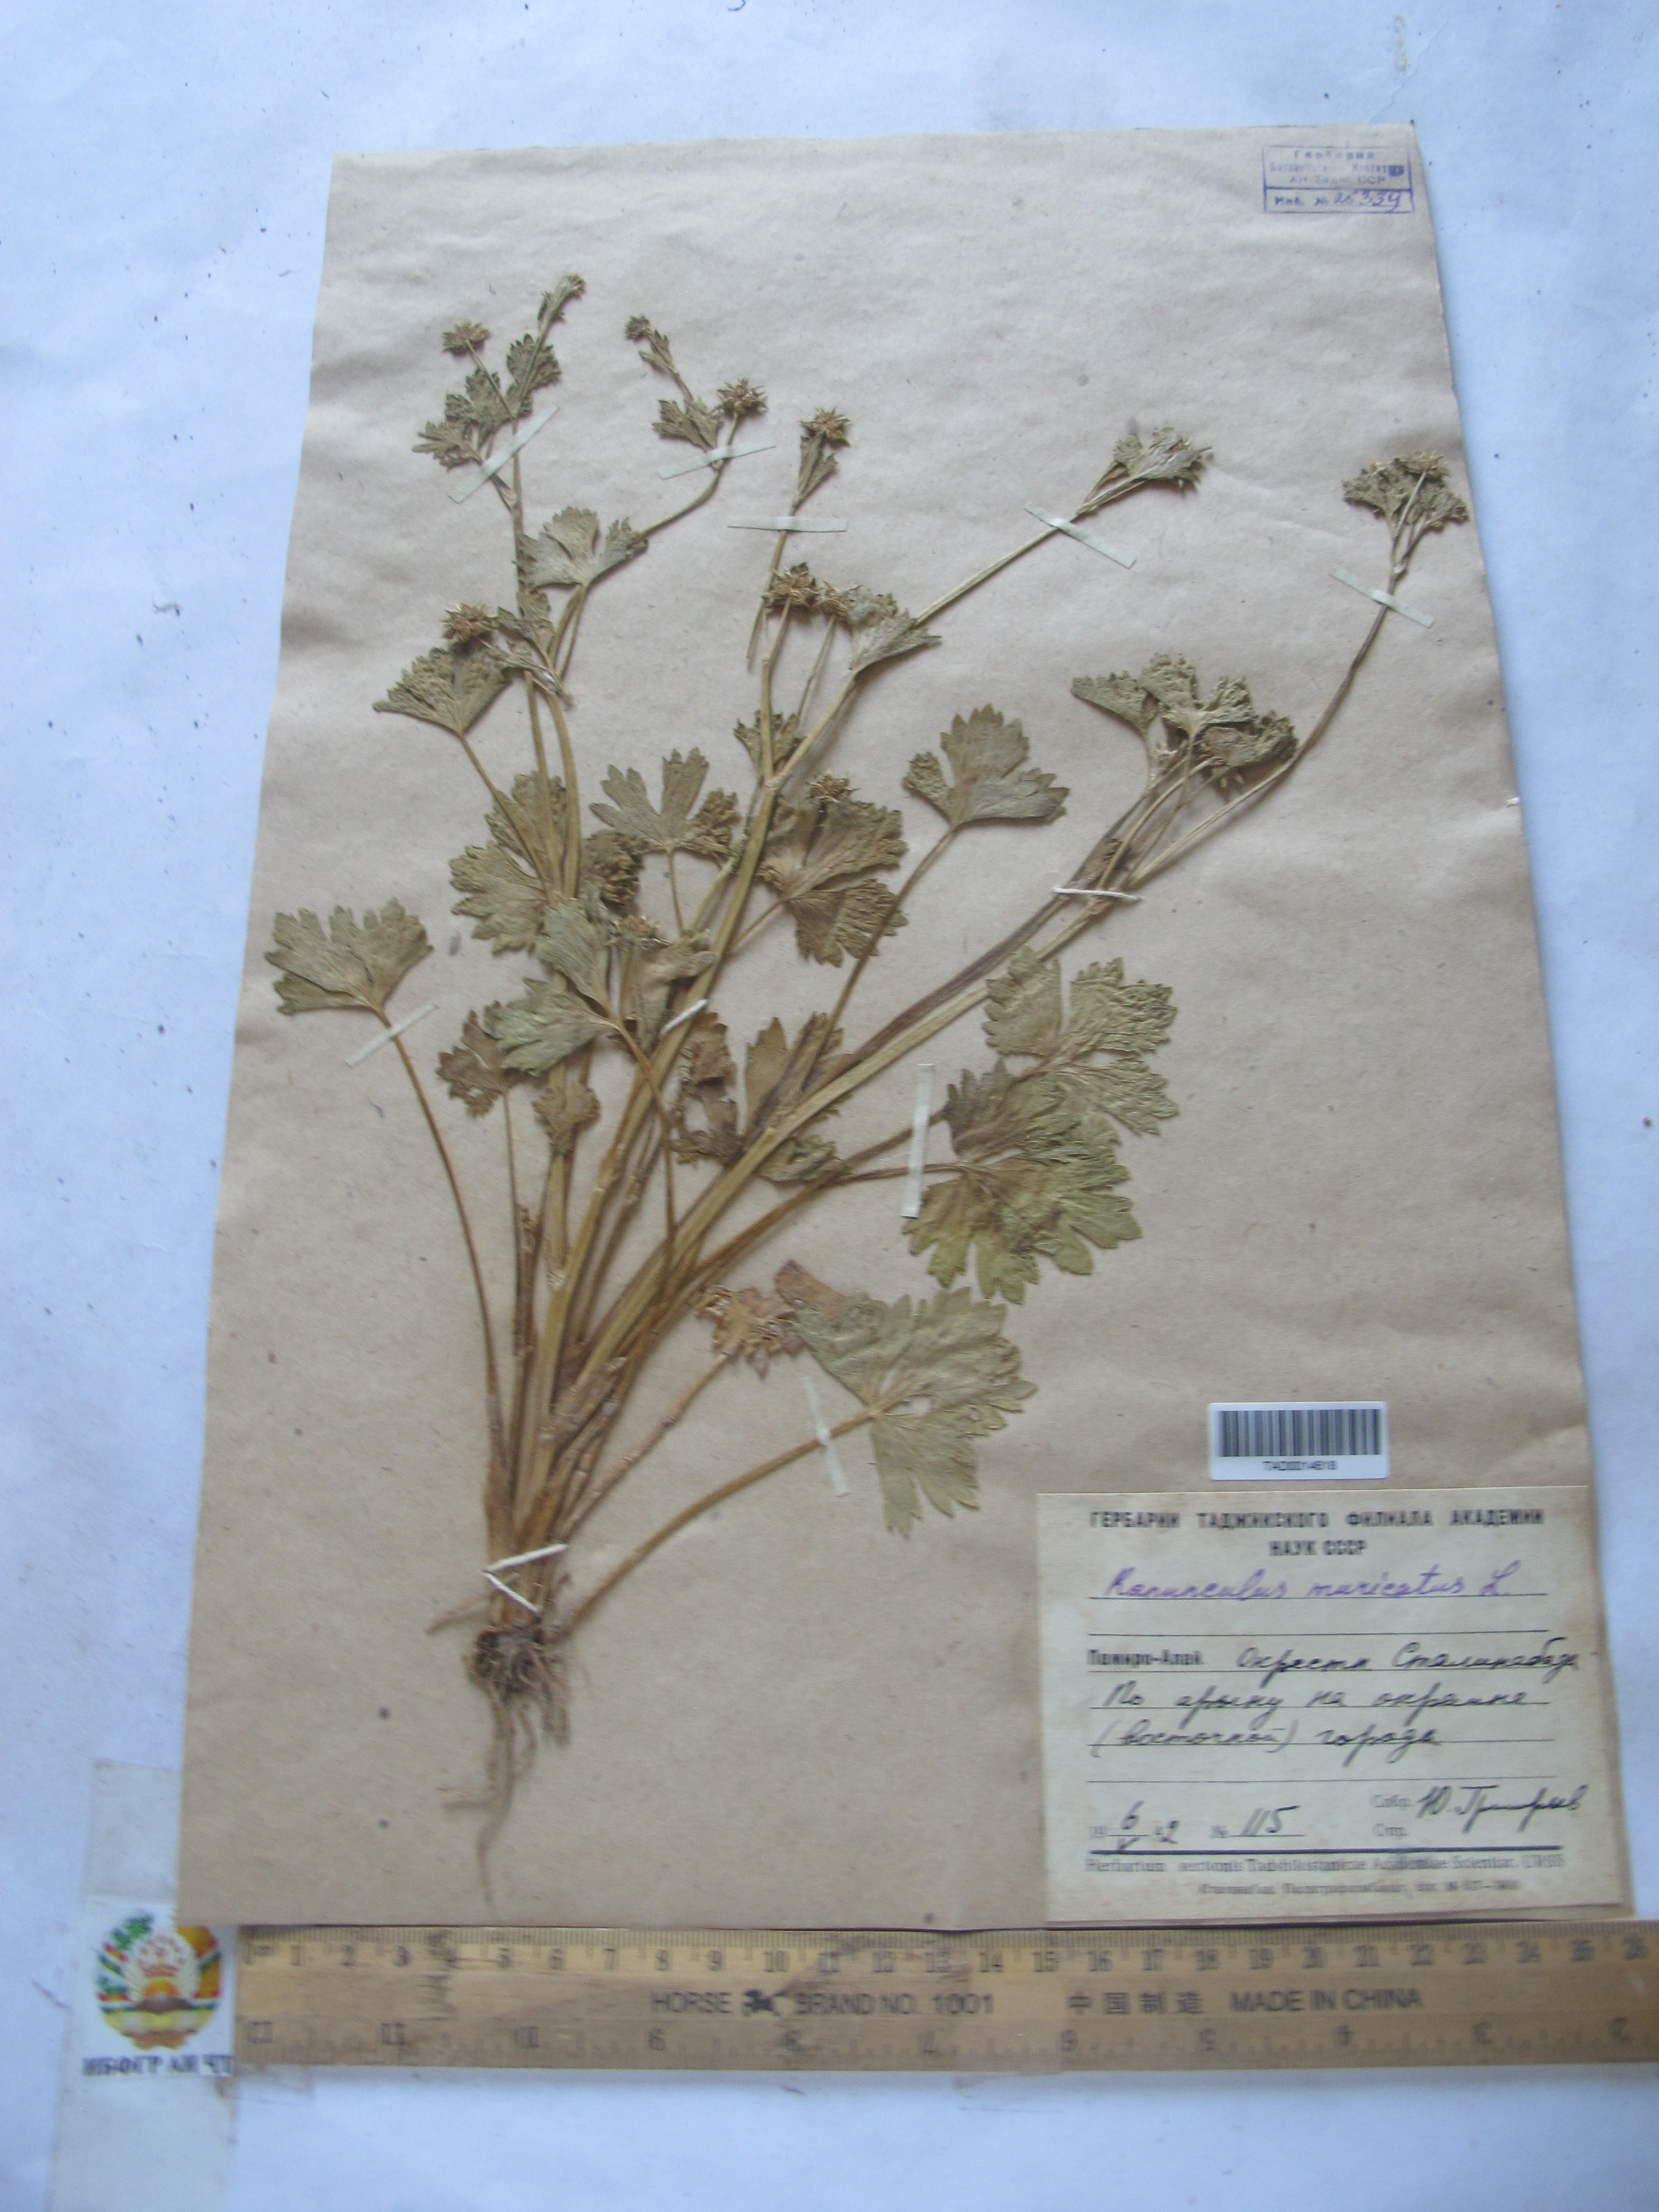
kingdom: Plantae
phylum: Tracheophyta
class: Magnoliopsida
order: Ranunculales
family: Ranunculaceae
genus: Ranunculus
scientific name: Ranunculus muricatus
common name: Rough-fruited buttercup
